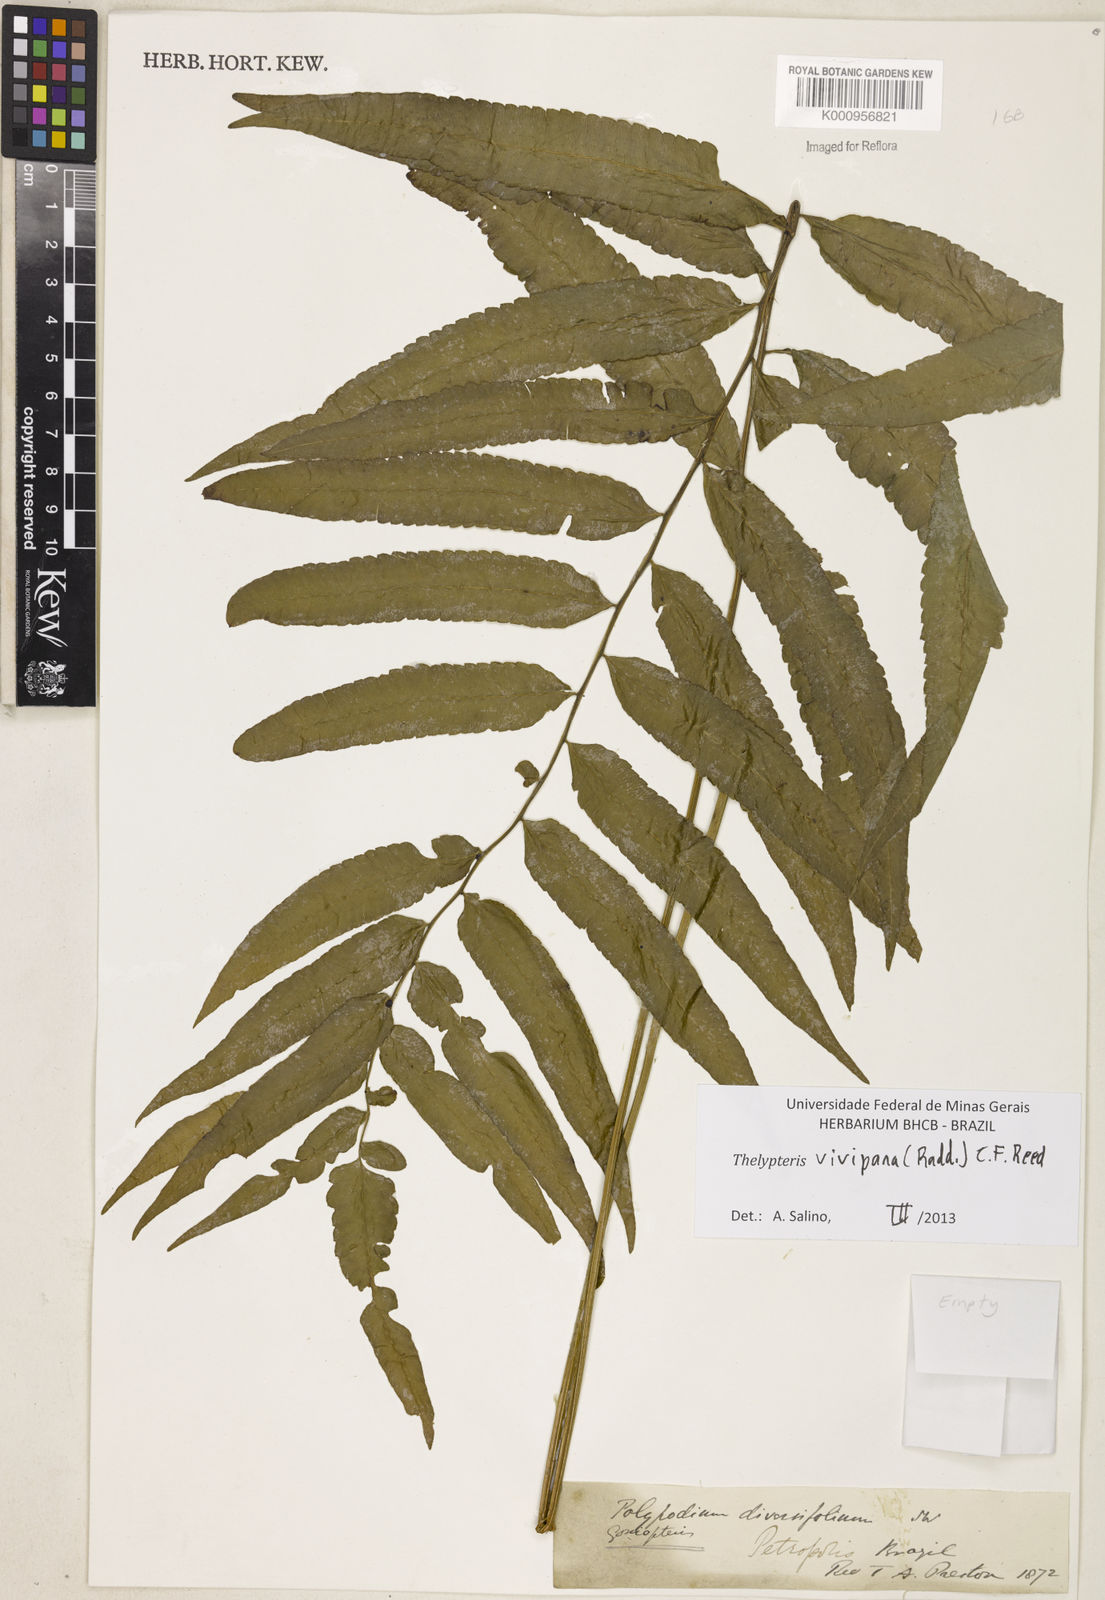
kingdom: Plantae
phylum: Tracheophyta
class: Polypodiopsida
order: Polypodiales
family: Thelypteridaceae
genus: Goniopteris
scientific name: Goniopteris vivipara
